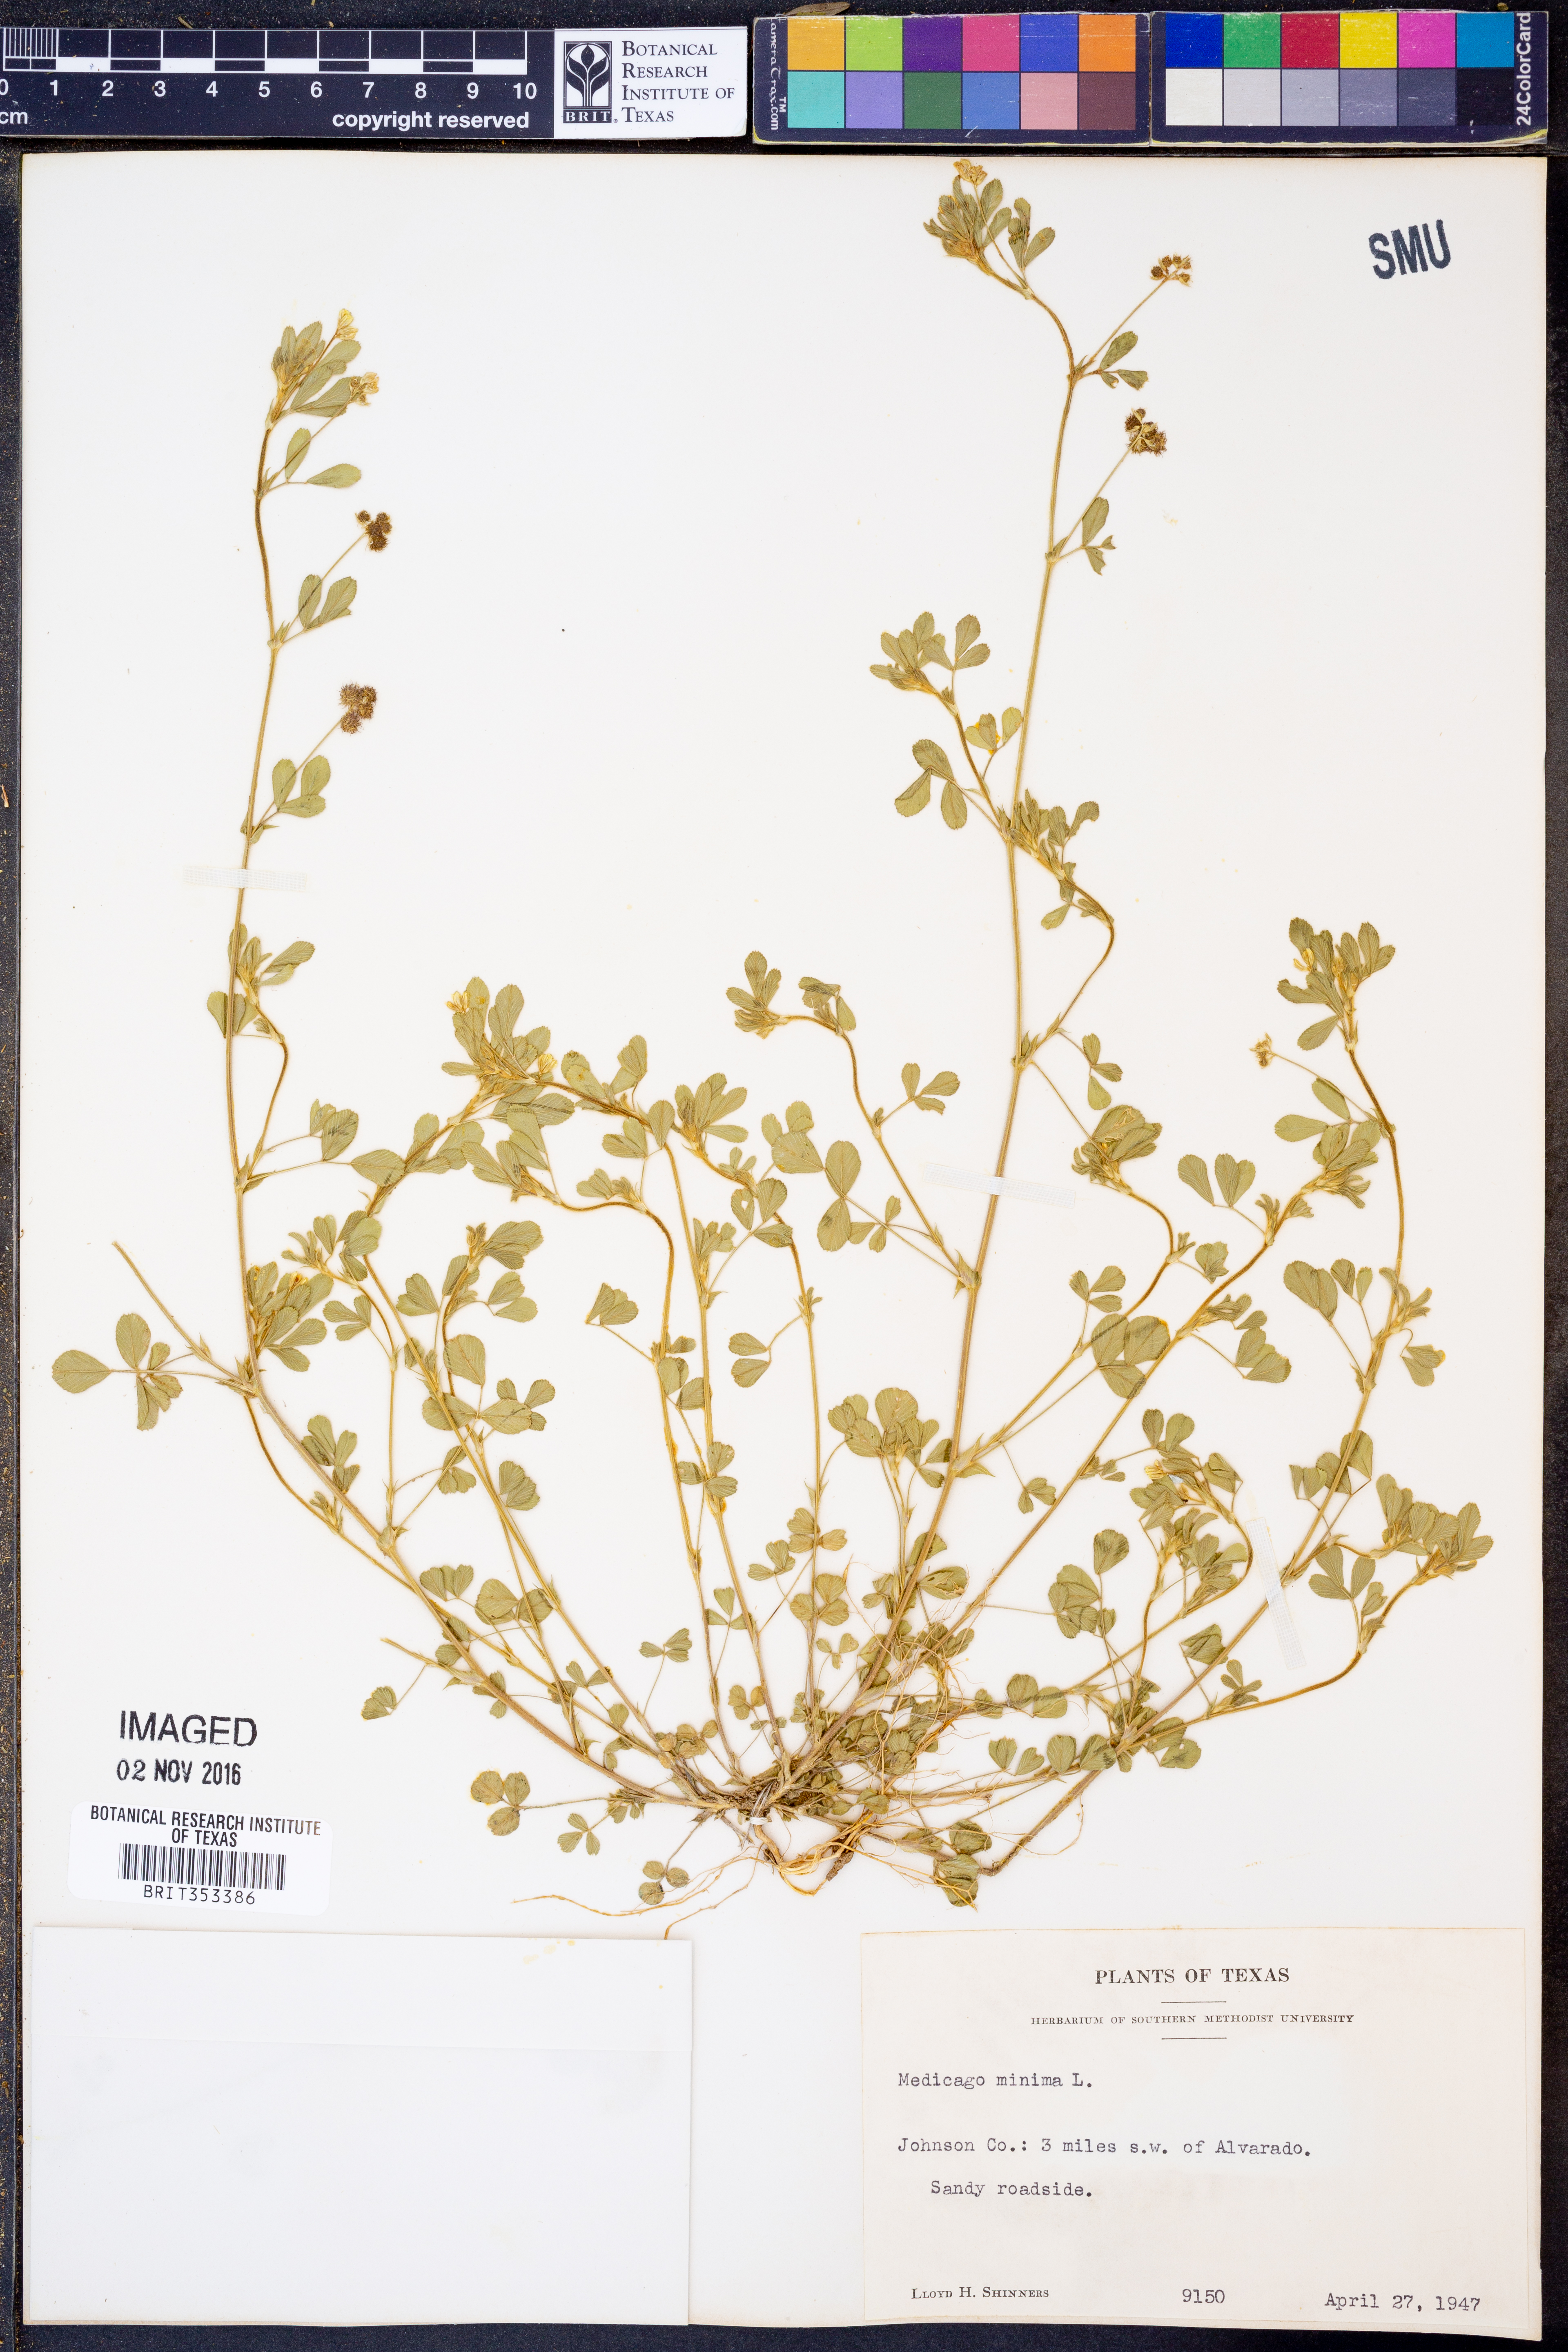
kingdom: Plantae
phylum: Tracheophyta
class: Magnoliopsida
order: Fabales
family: Fabaceae
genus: Medicago
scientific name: Medicago minima
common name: Little bur-clover
